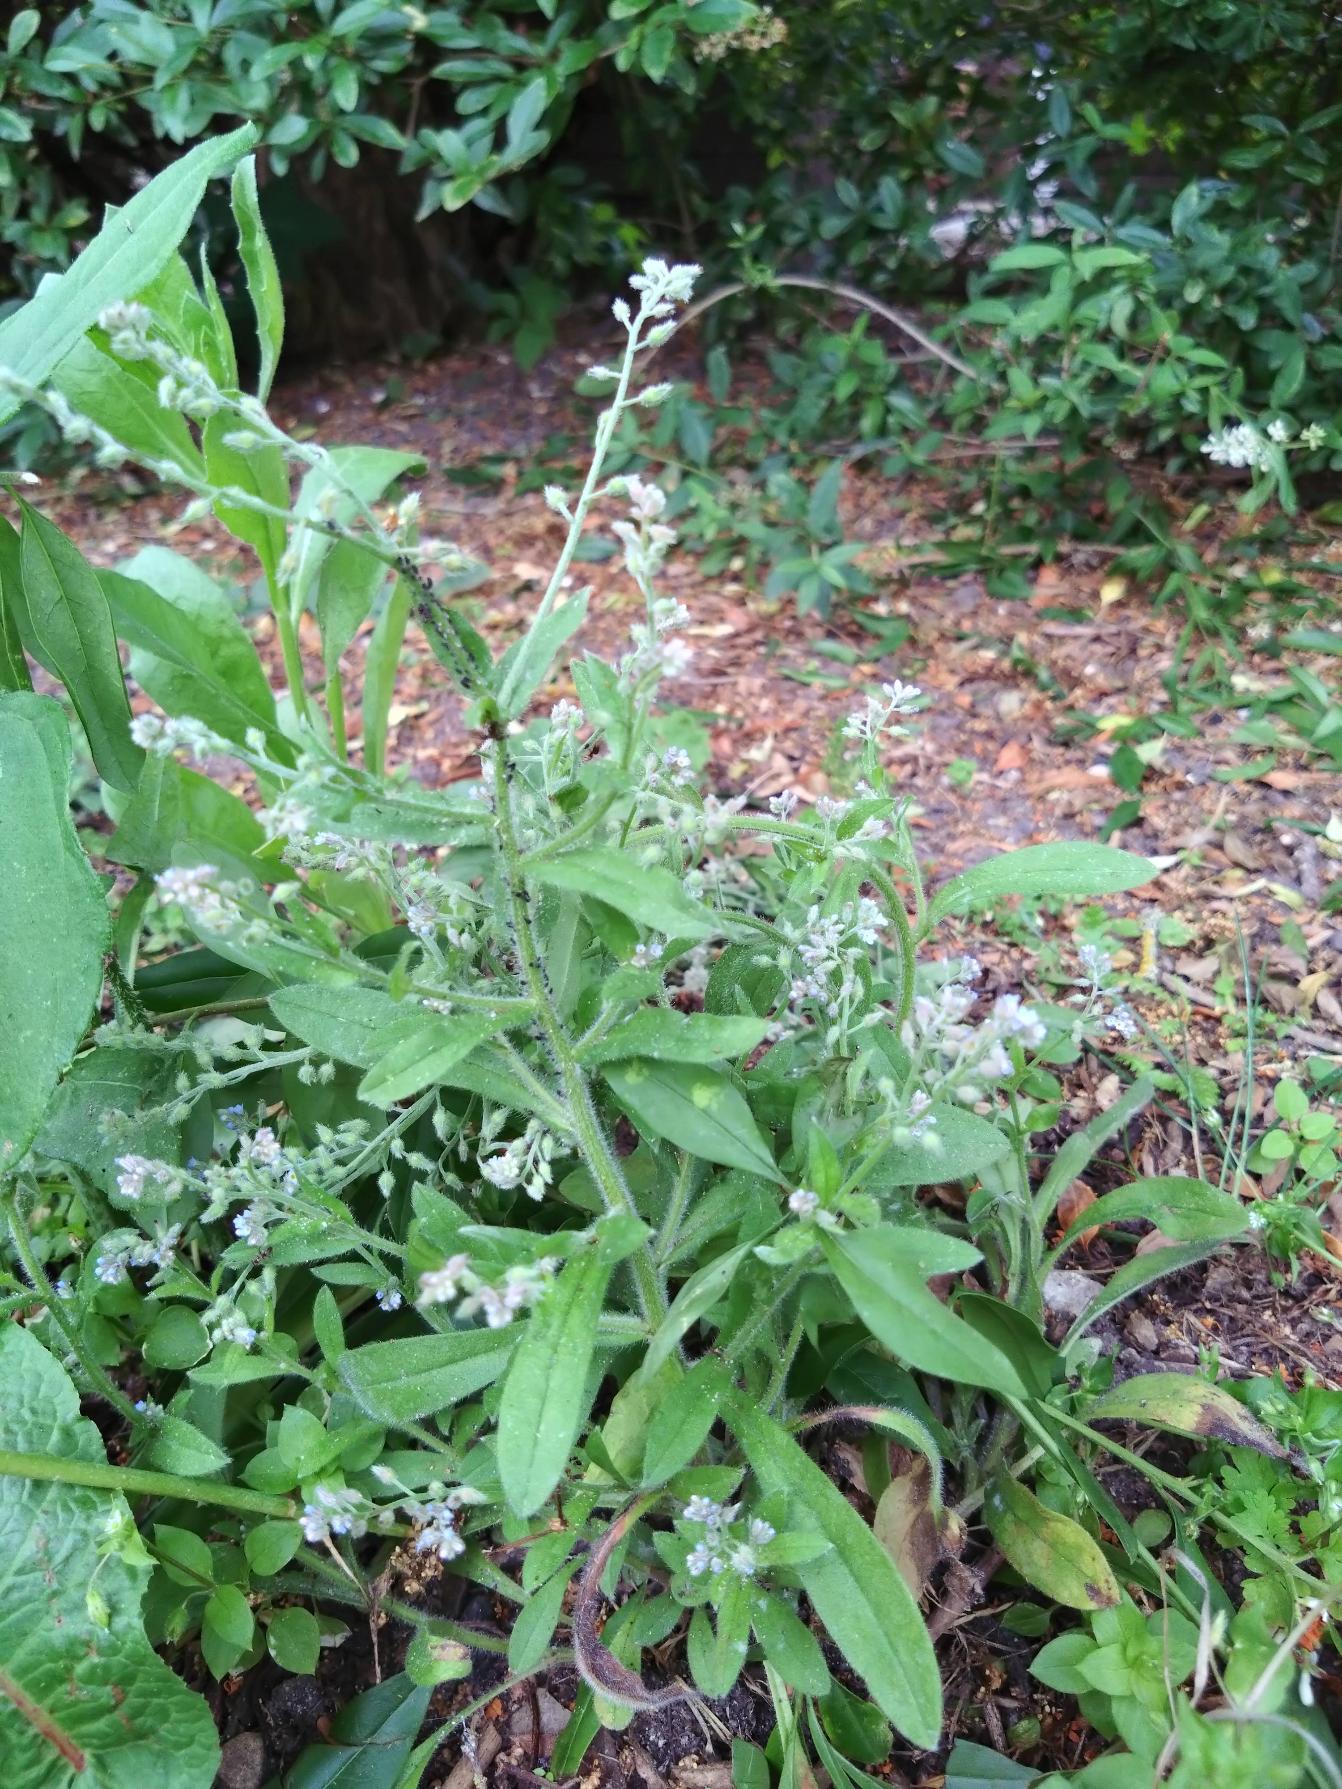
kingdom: Plantae
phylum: Tracheophyta
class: Magnoliopsida
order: Boraginales
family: Boraginaceae
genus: Myosotis
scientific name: Myosotis arvensis
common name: Mark-forglemmigej
